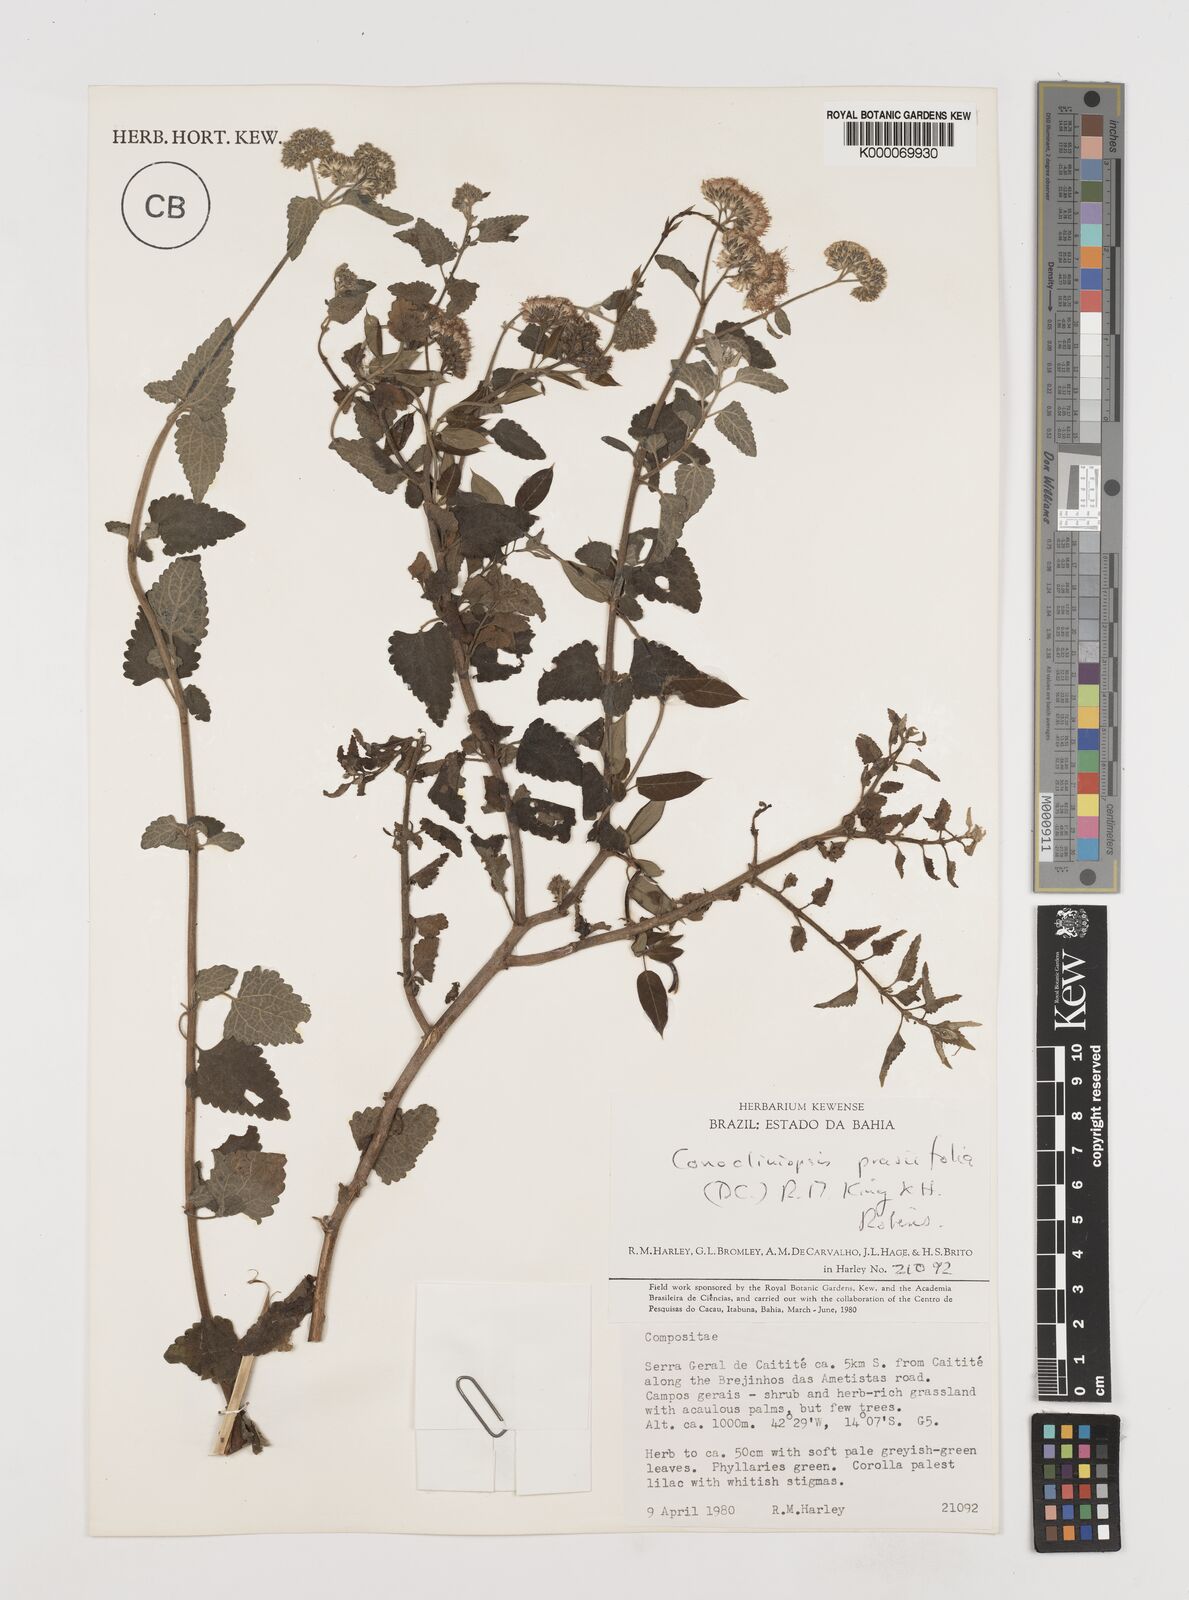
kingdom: Plantae
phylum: Tracheophyta
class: Magnoliopsida
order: Asterales
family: Asteraceae
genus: Conocliniopsis
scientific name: Conocliniopsis grossedentata
